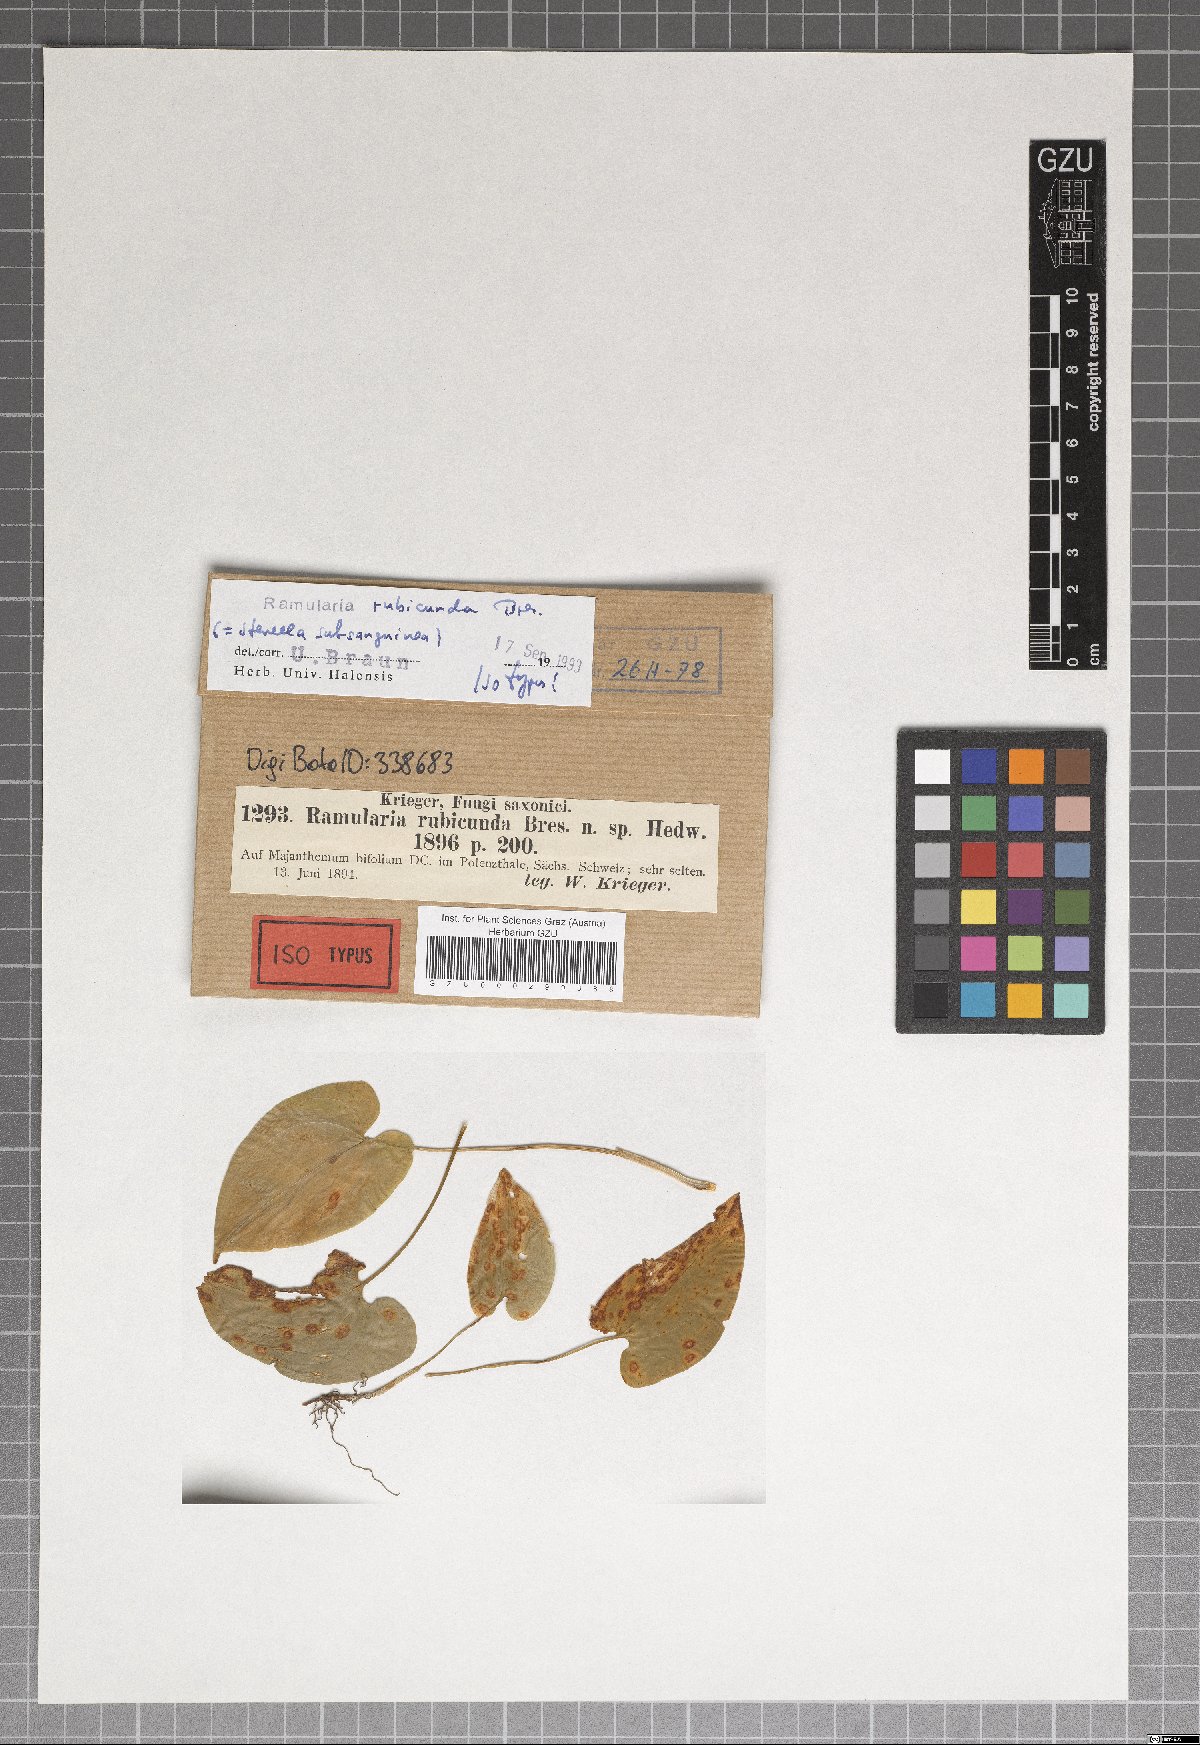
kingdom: Fungi
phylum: Ascomycota
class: Dothideomycetes
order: Mycosphaerellales
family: Mycosphaerellaceae
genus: Zasmidium
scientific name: Zasmidium subsanguineum
